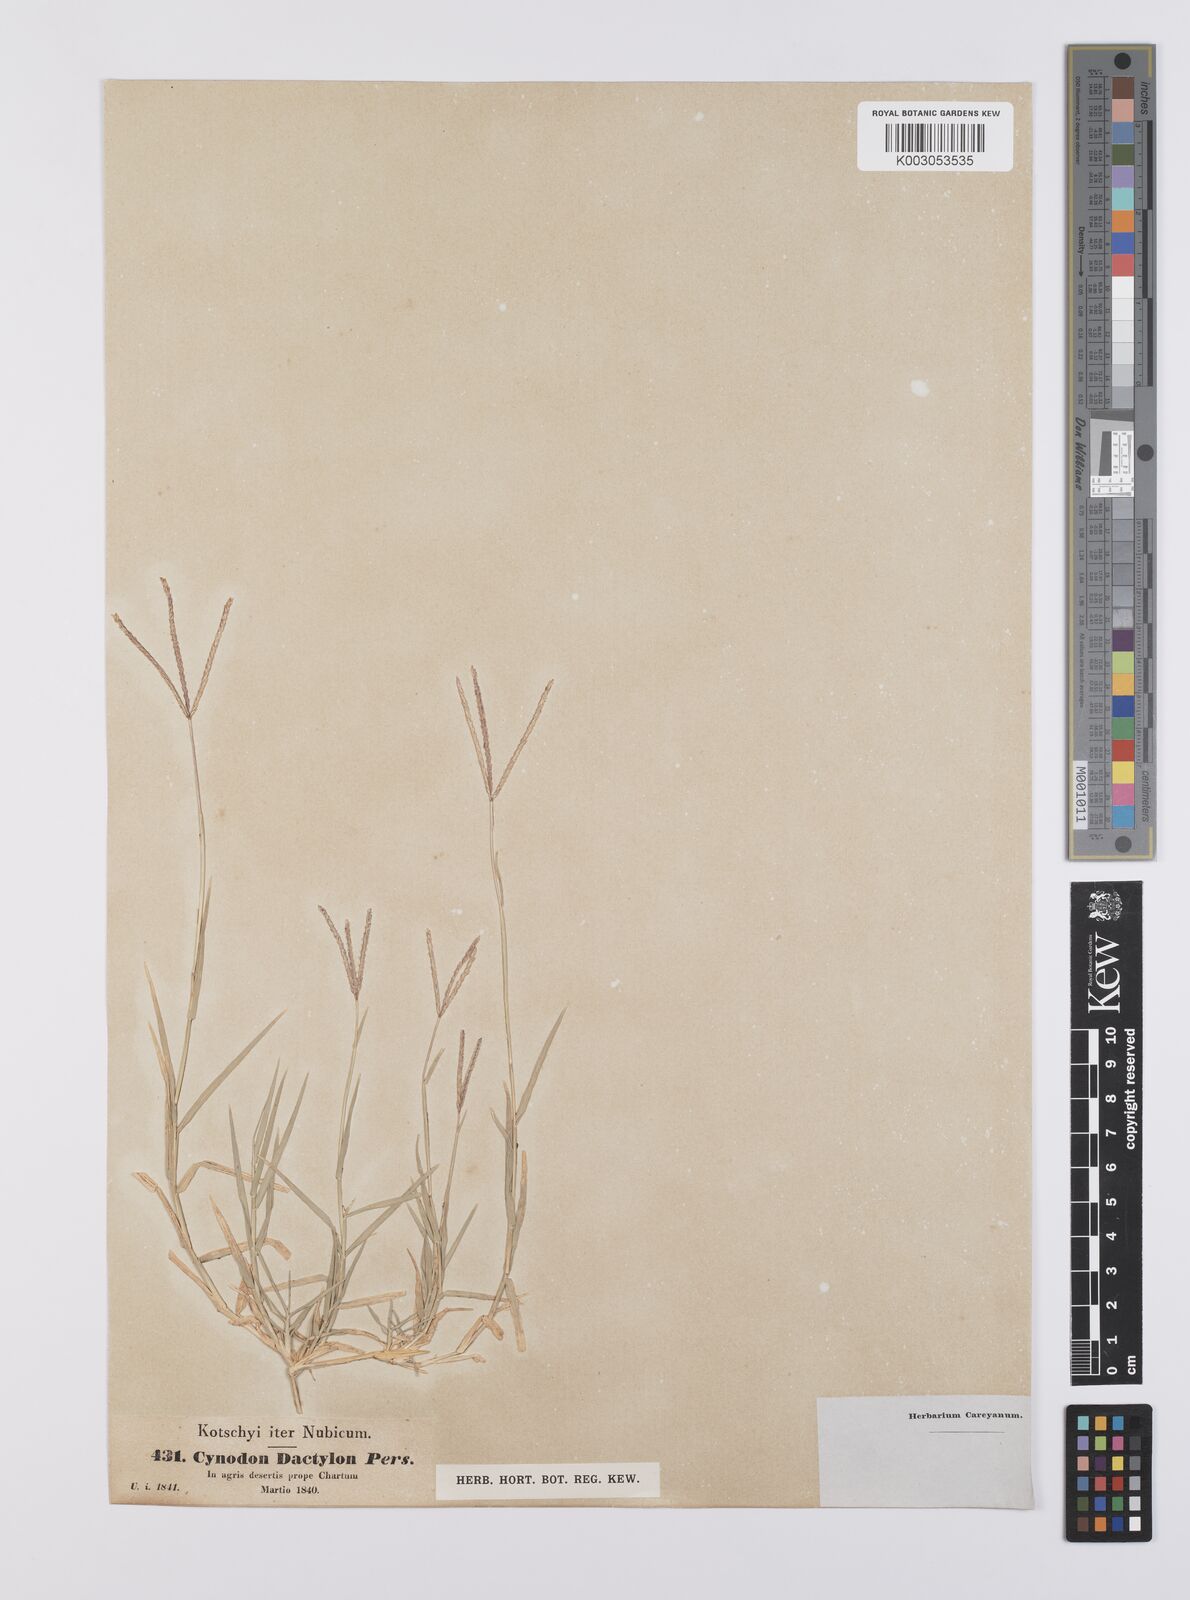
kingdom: Plantae
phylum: Tracheophyta
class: Liliopsida
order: Poales
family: Poaceae
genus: Cynodon
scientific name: Cynodon dactylon
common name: Bermuda grass
